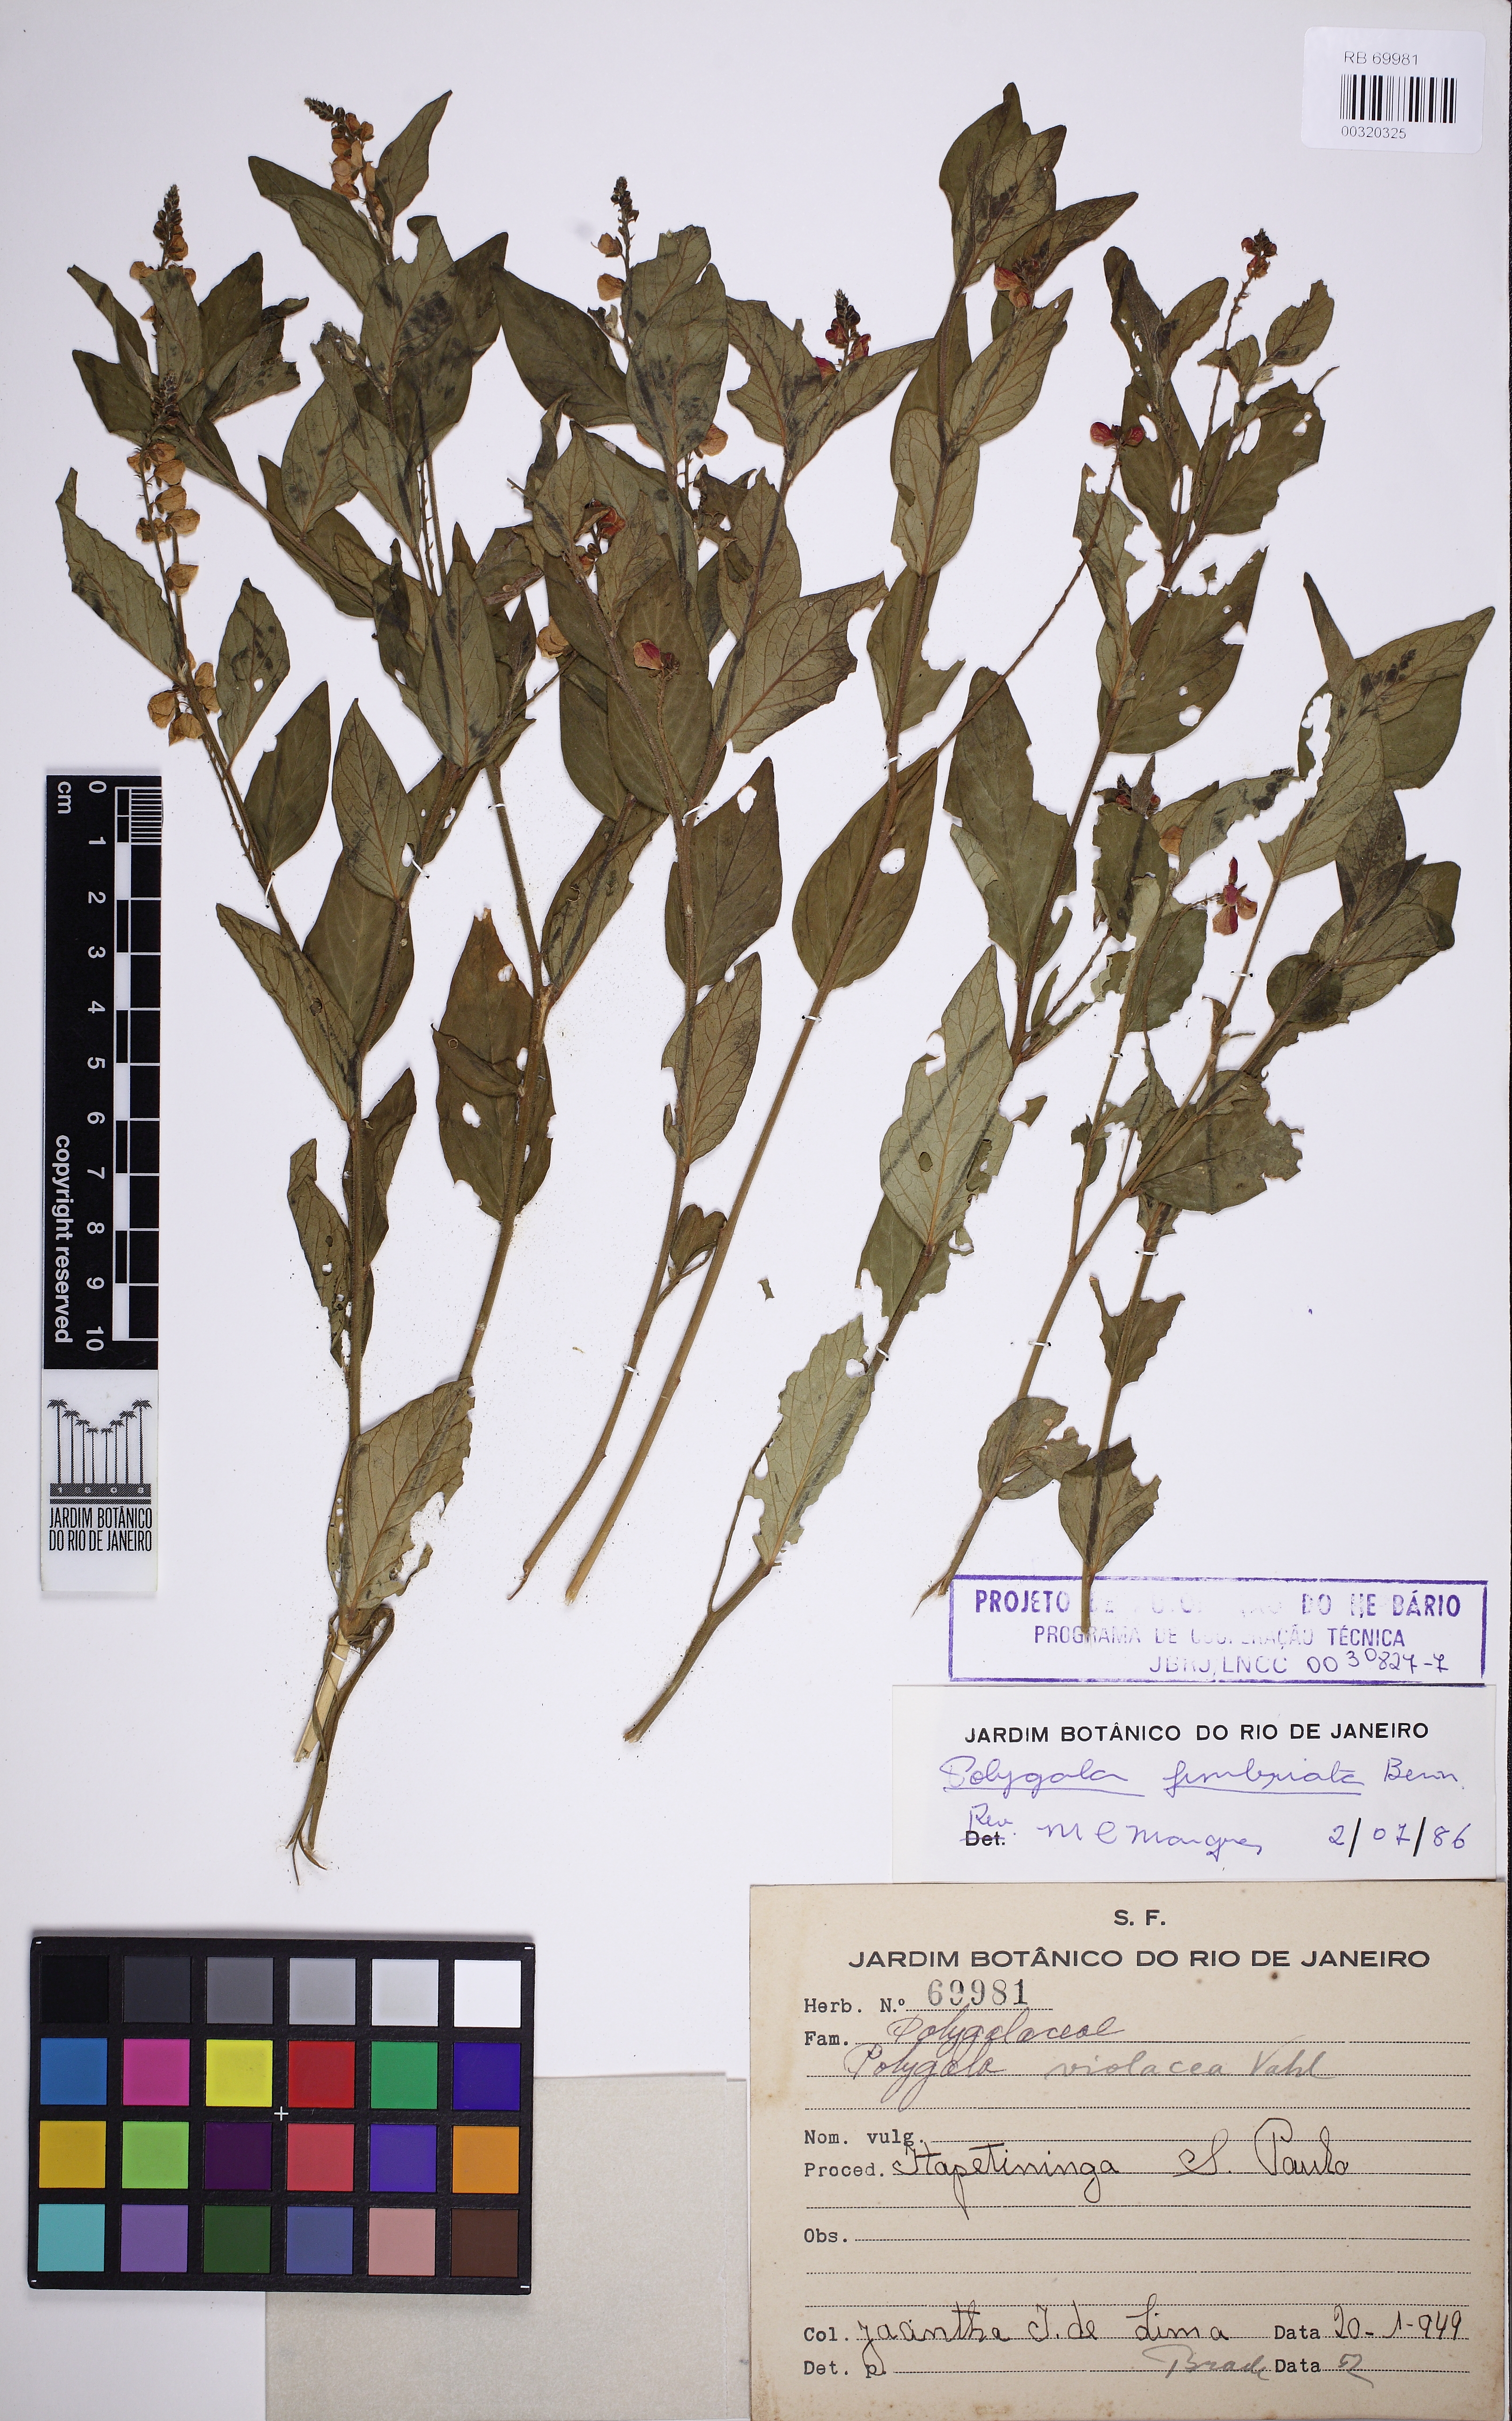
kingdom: Plantae
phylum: Tracheophyta
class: Magnoliopsida
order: Fabales
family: Polygalaceae
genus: Asemeia
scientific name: Asemeia acuminata
